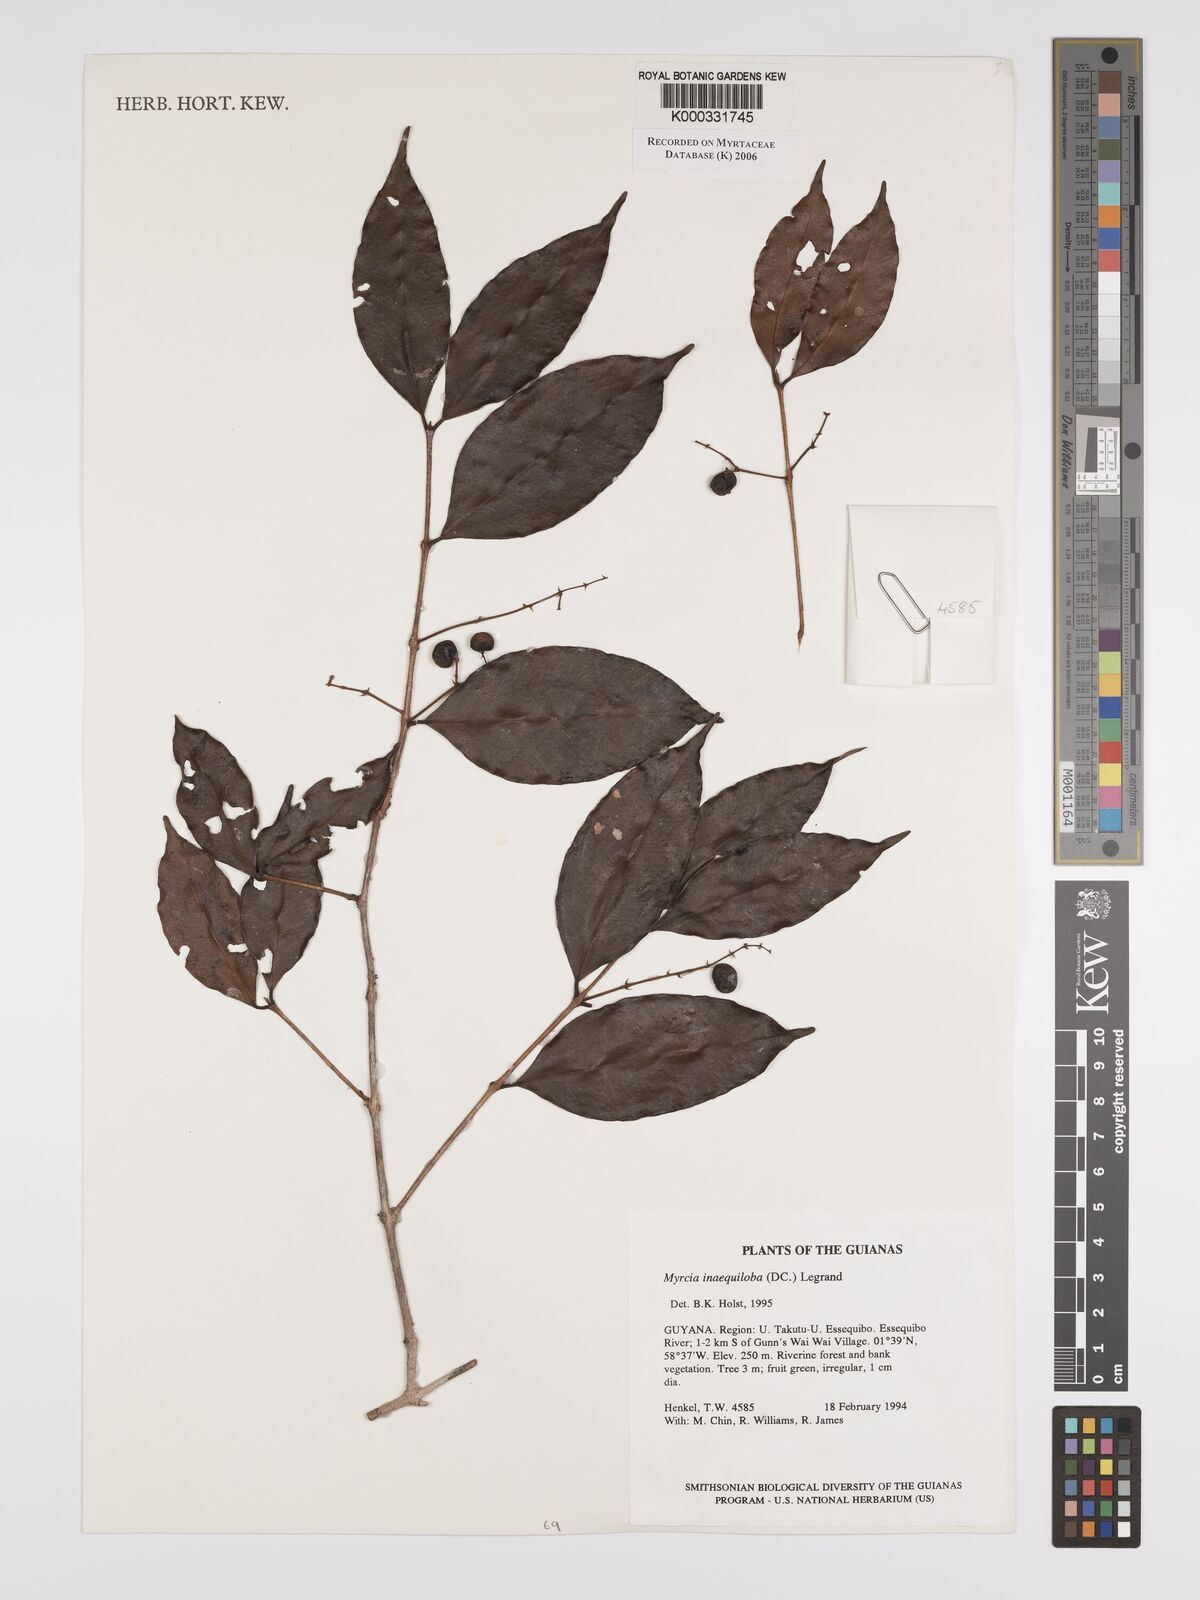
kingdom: Plantae
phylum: Tracheophyta
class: Magnoliopsida
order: Myrtales
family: Myrtaceae
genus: Myrcia
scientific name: Myrcia
